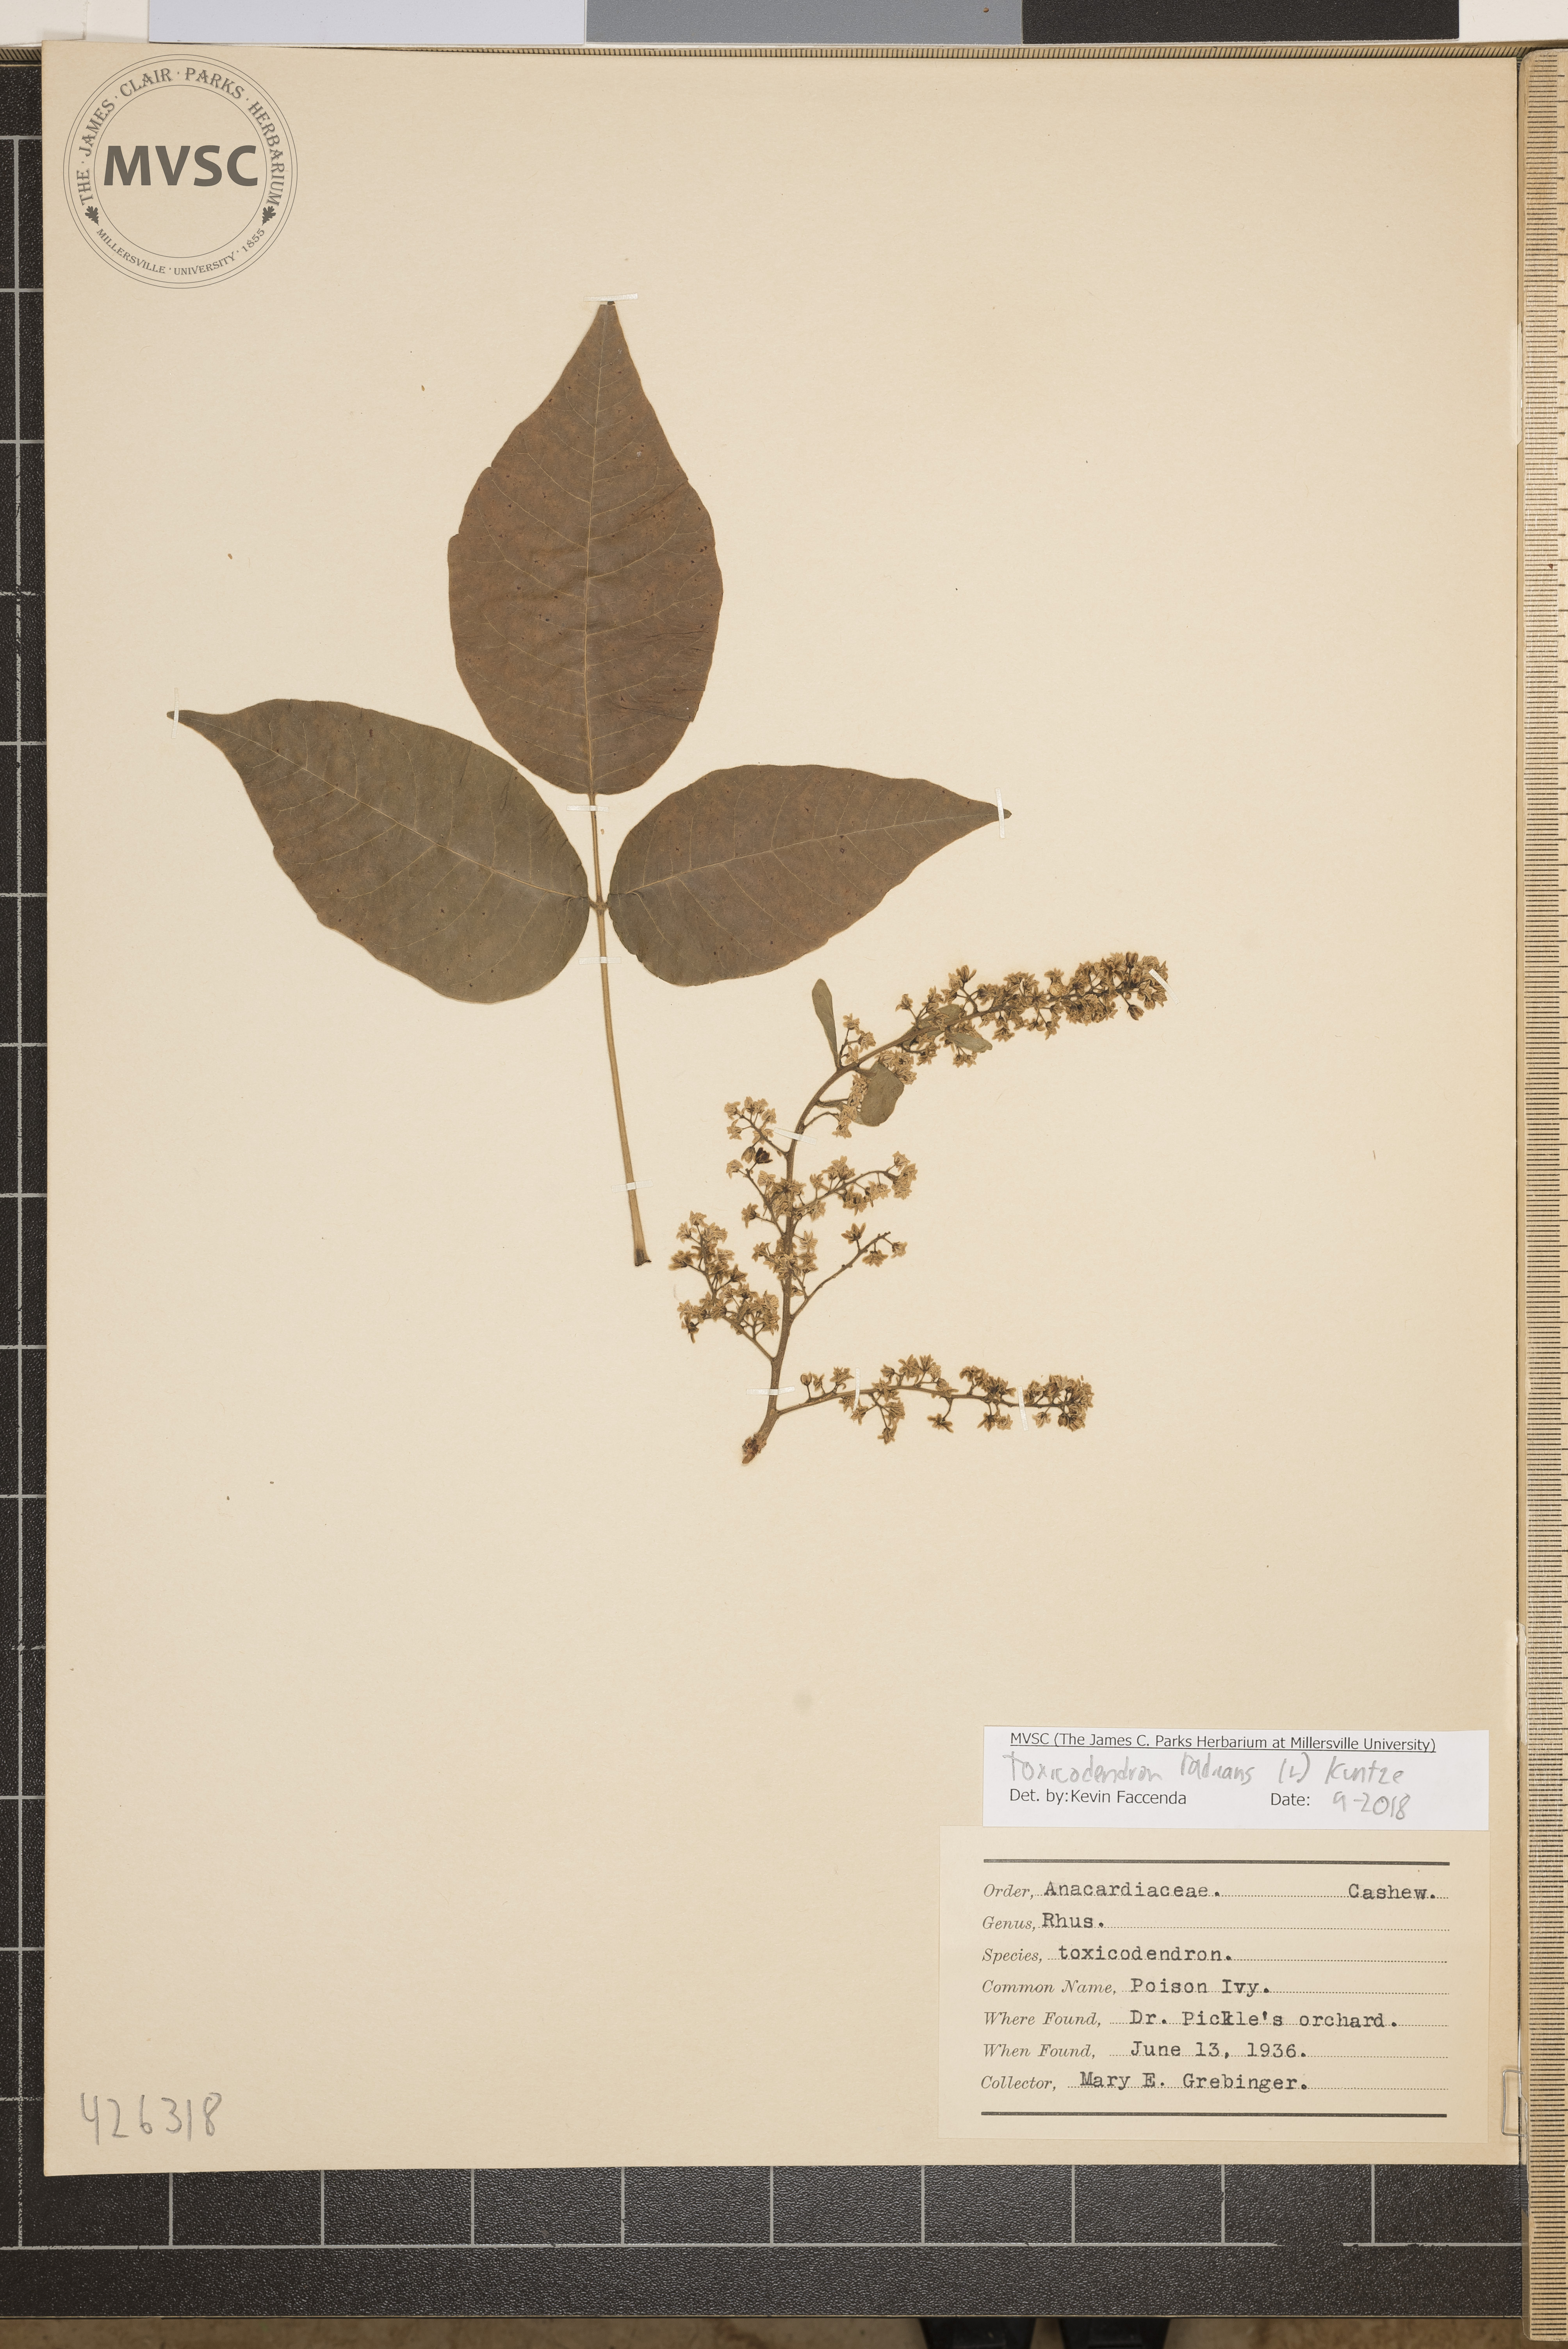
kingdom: Plantae
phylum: Tracheophyta
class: Magnoliopsida
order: Sapindales
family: Anacardiaceae
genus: Toxicodendron
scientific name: Toxicodendron radicans
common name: Poison Ivy
